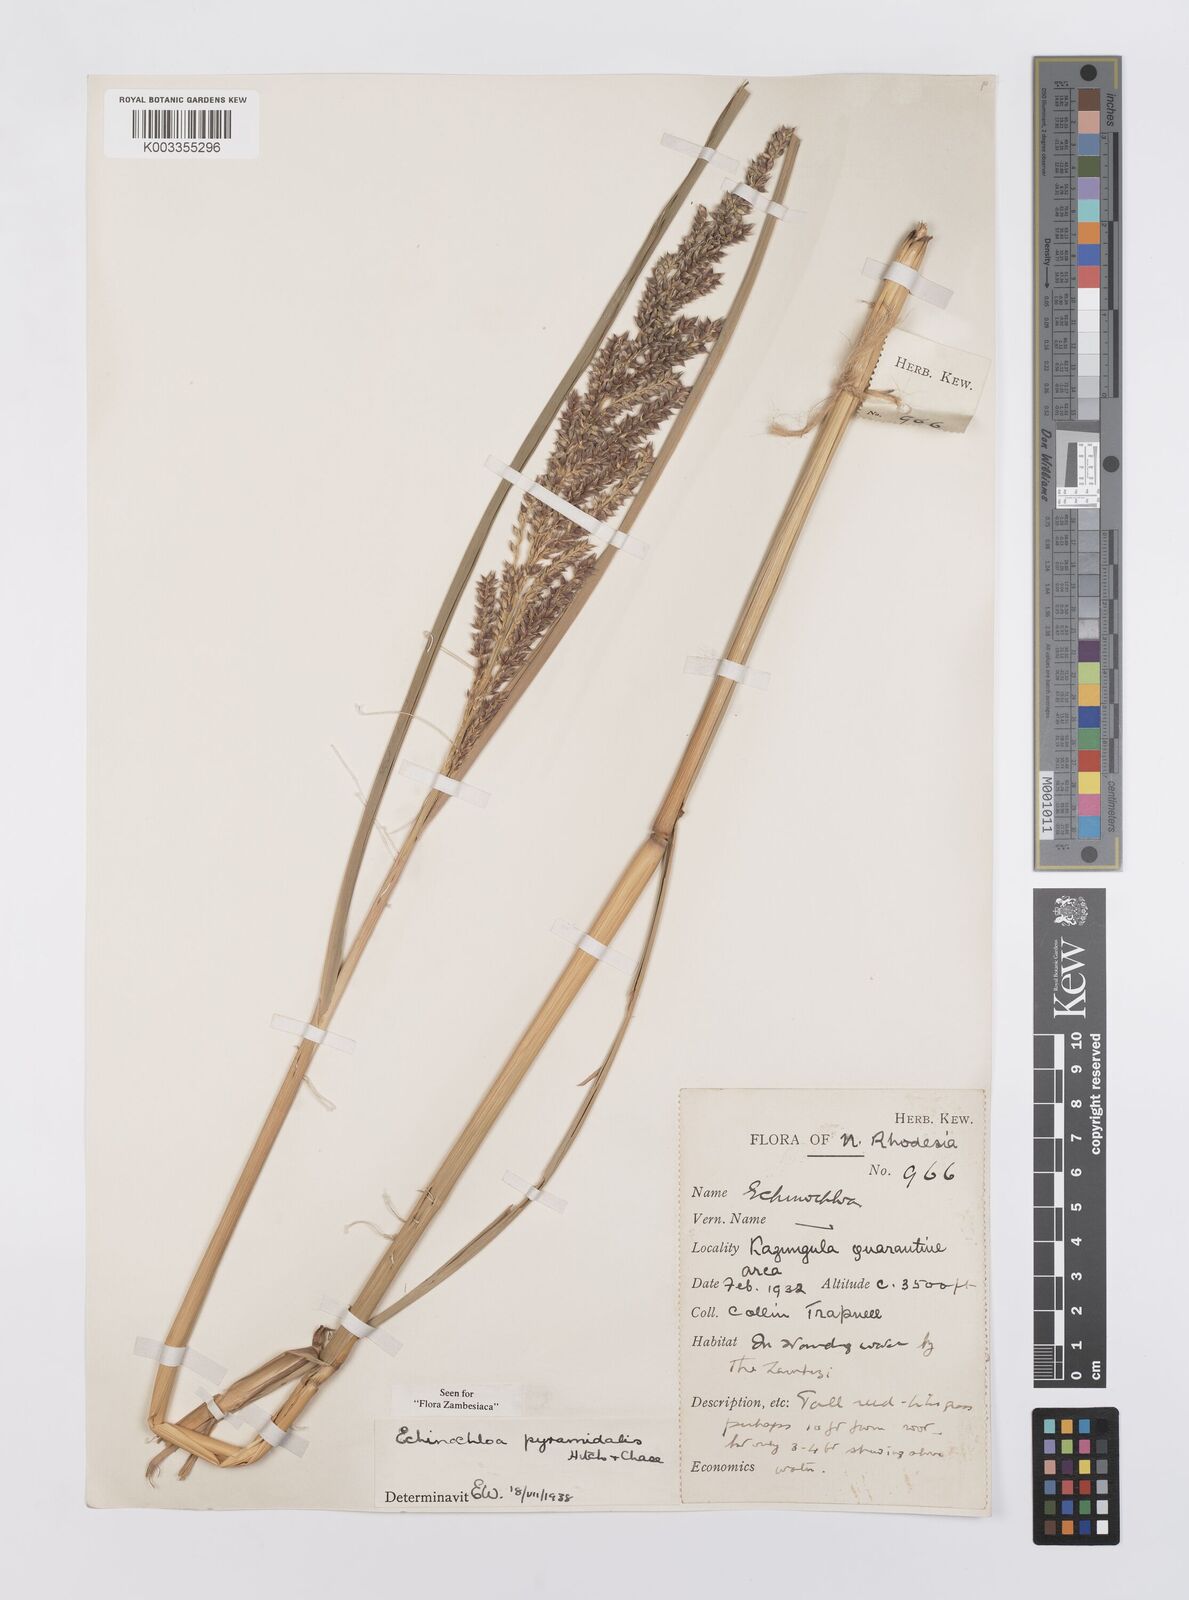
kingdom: Plantae
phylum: Tracheophyta
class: Liliopsida
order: Poales
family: Poaceae
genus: Echinochloa
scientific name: Echinochloa pyramidalis
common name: Antelope grass
